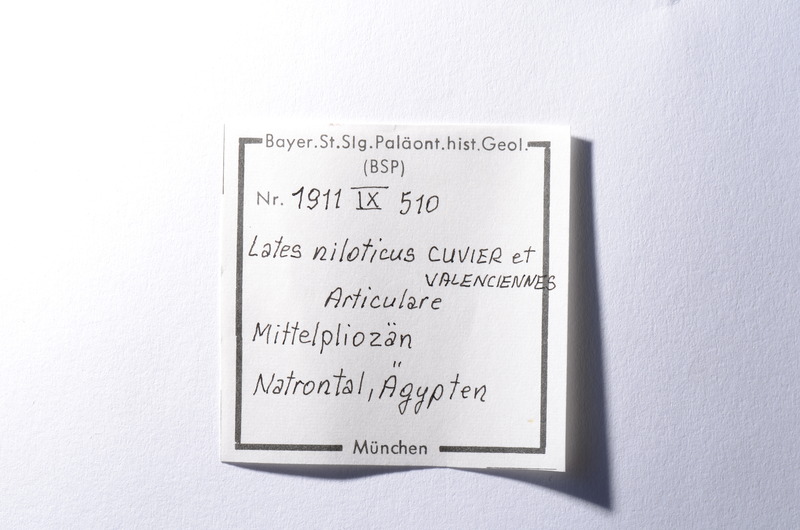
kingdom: Animalia
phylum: Chordata
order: Perciformes
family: Latidae
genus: Lates
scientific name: Lates niloticus
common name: Nile perch
